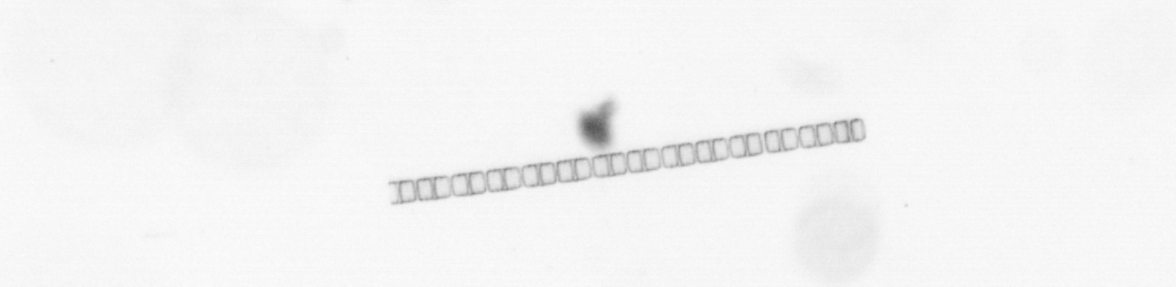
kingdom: Chromista
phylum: Ochrophyta
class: Bacillariophyceae
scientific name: Bacillariophyceae
